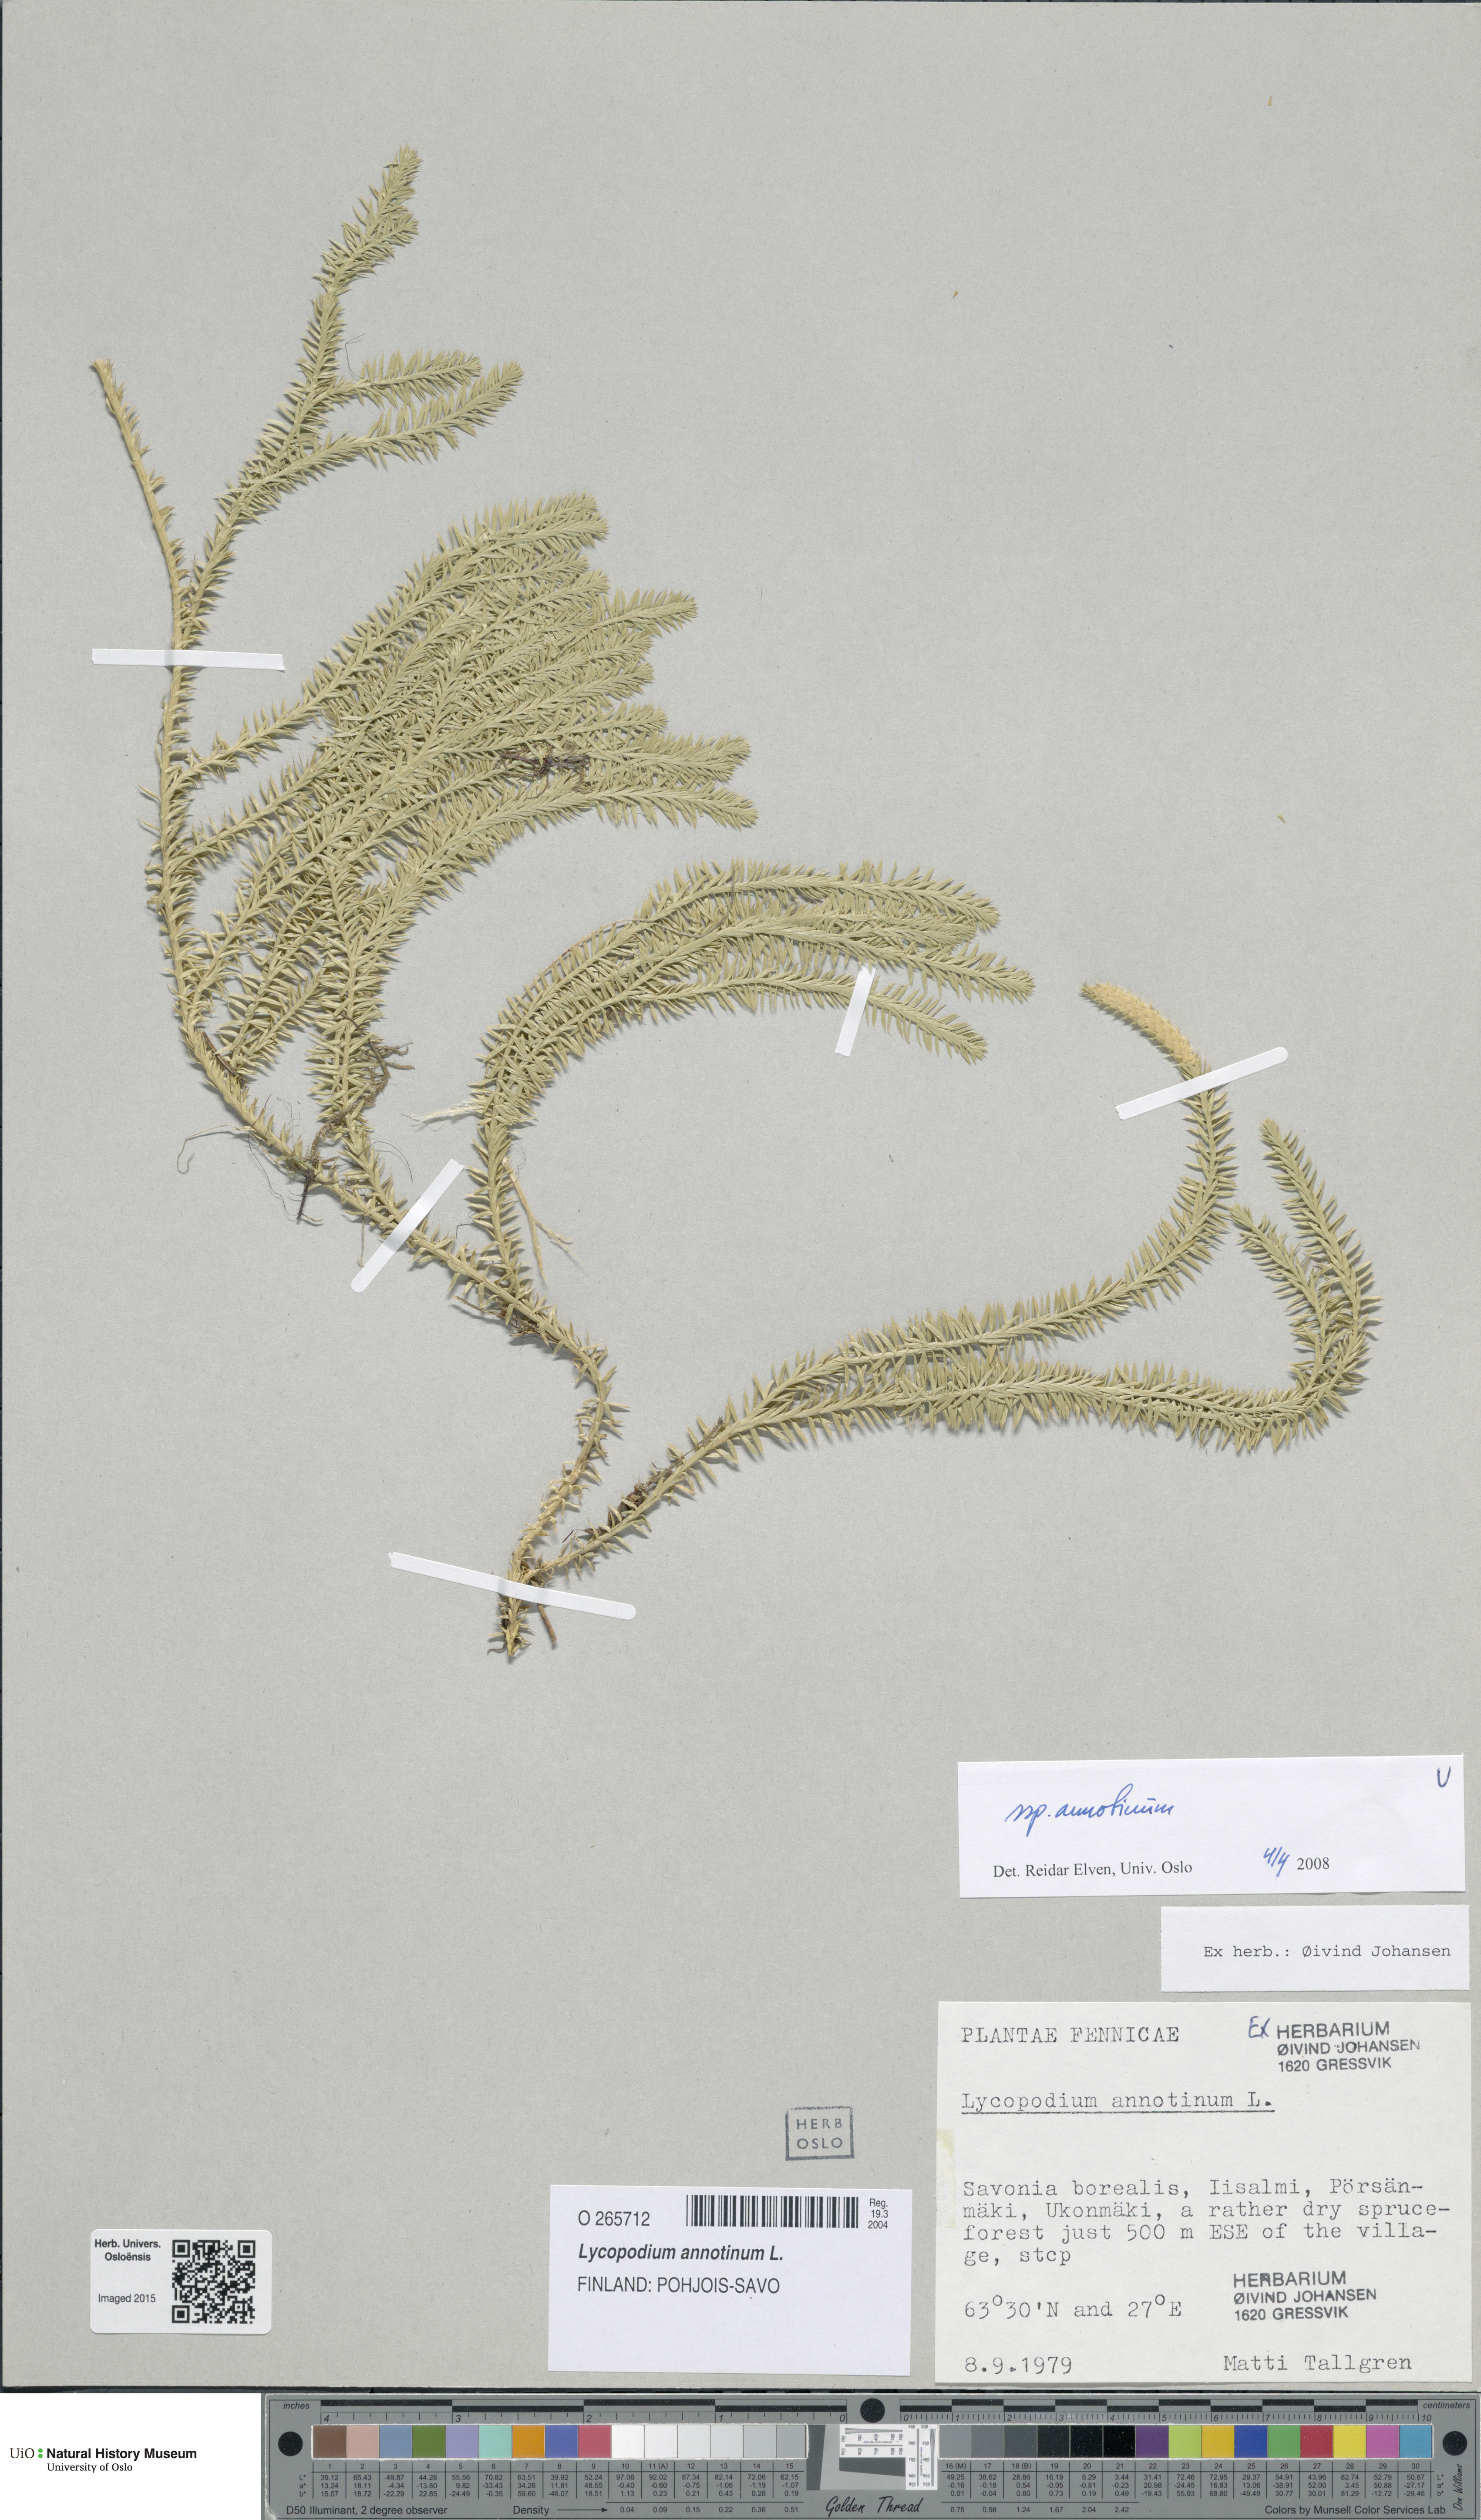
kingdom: Plantae
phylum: Tracheophyta
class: Lycopodiopsida
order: Lycopodiales
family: Lycopodiaceae
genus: Spinulum
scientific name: Spinulum annotinum
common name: Interrupted club-moss
